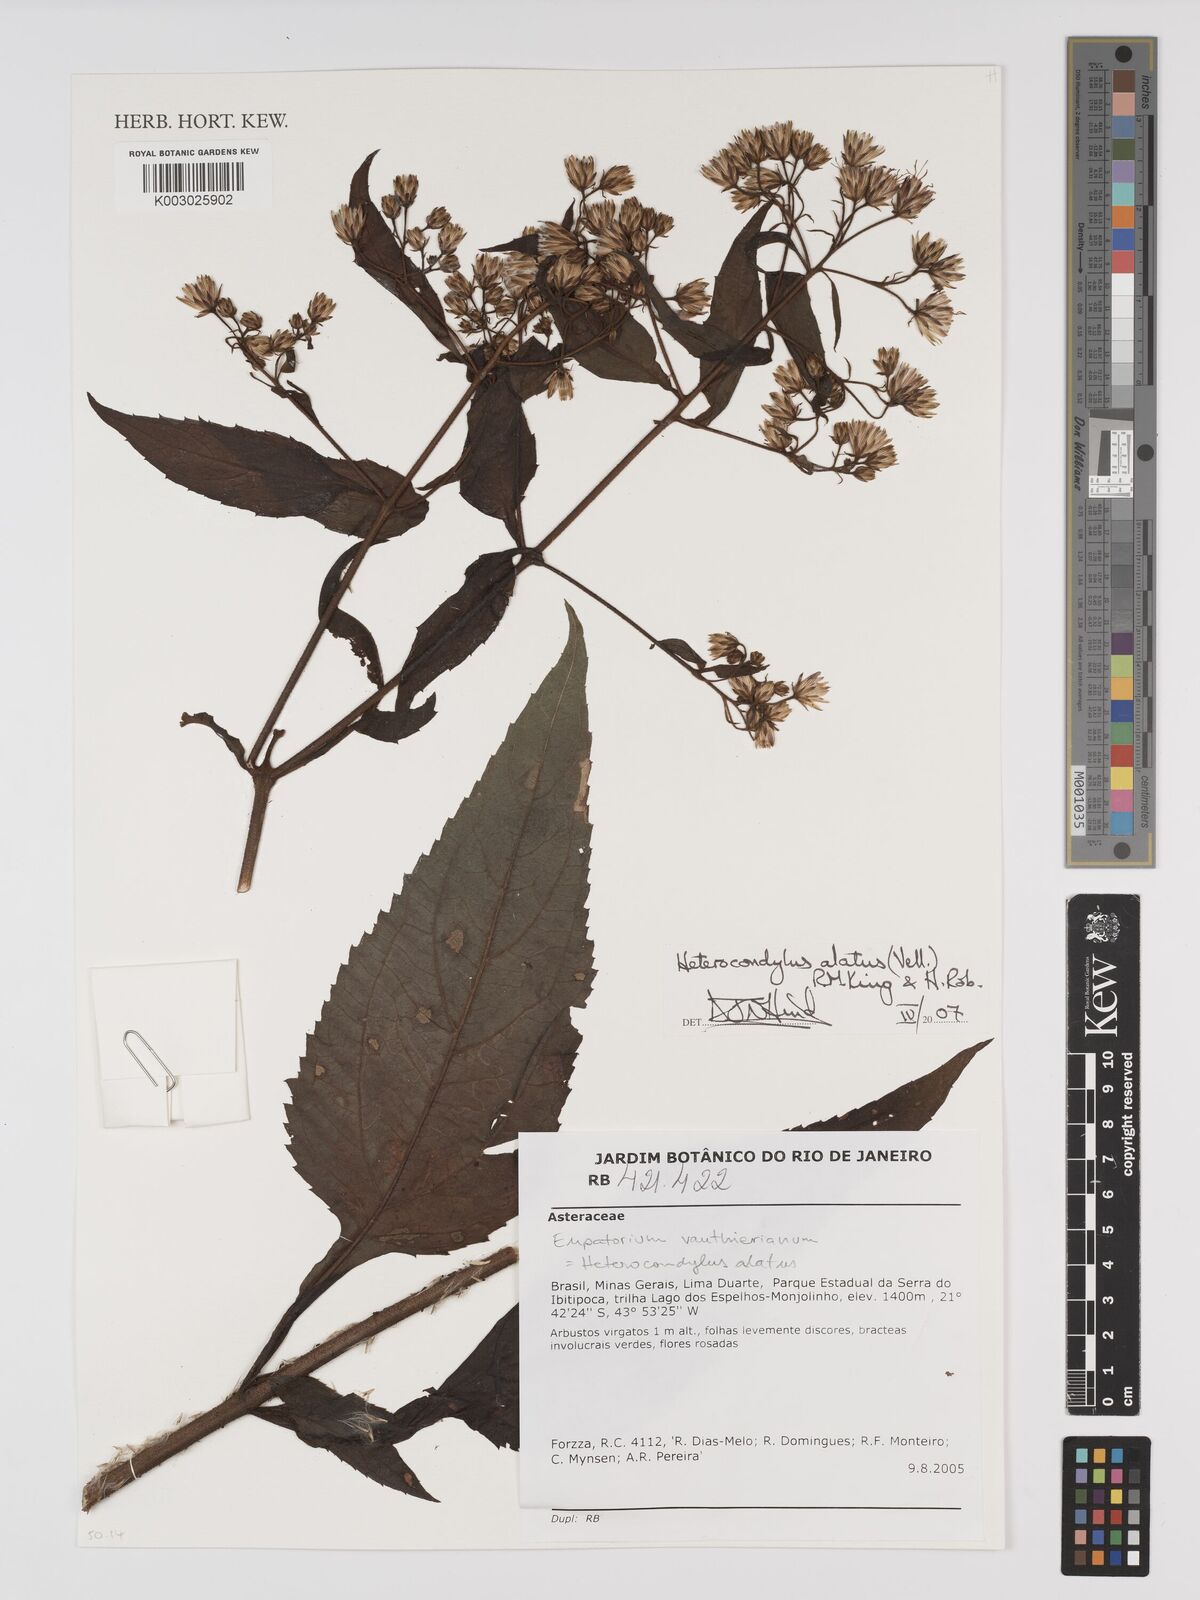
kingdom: Plantae
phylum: Tracheophyta
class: Magnoliopsida
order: Asterales
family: Asteraceae
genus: Heterocondylus
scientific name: Heterocondylus alatus
